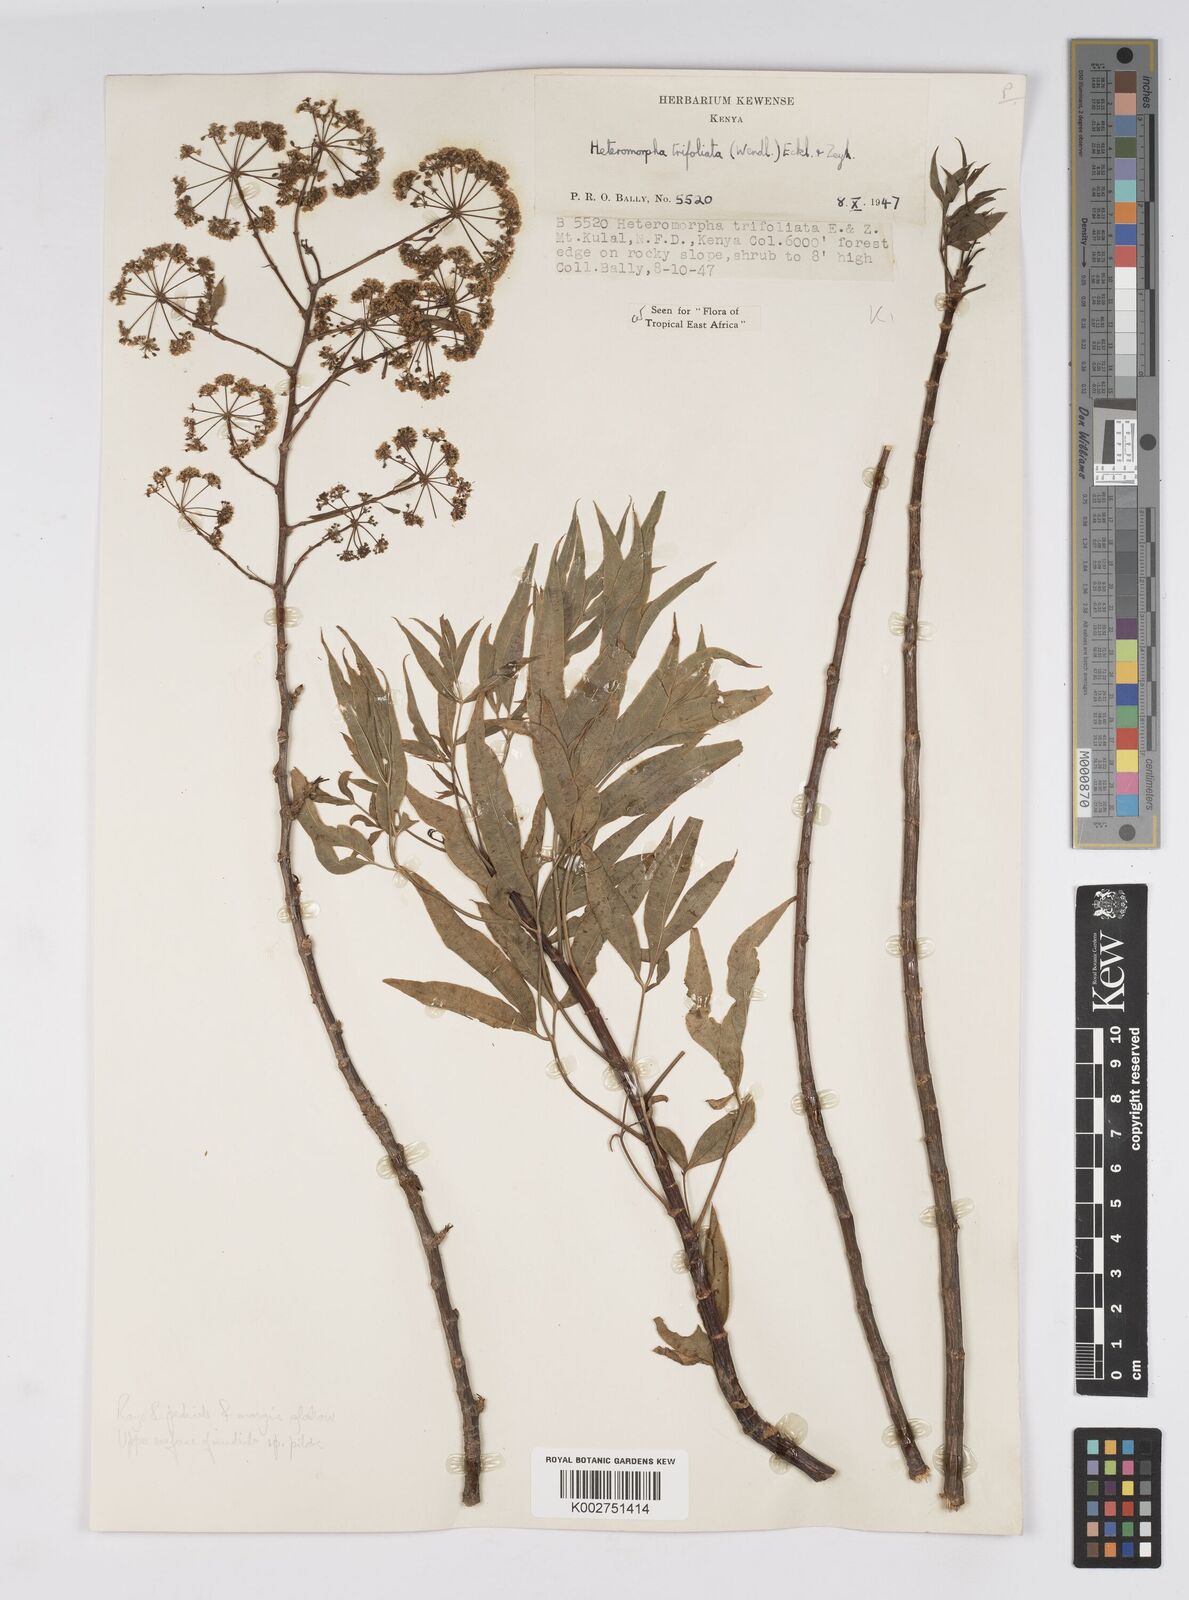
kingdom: Plantae
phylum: Tracheophyta
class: Magnoliopsida
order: Apiales
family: Apiaceae
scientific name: Apiaceae
